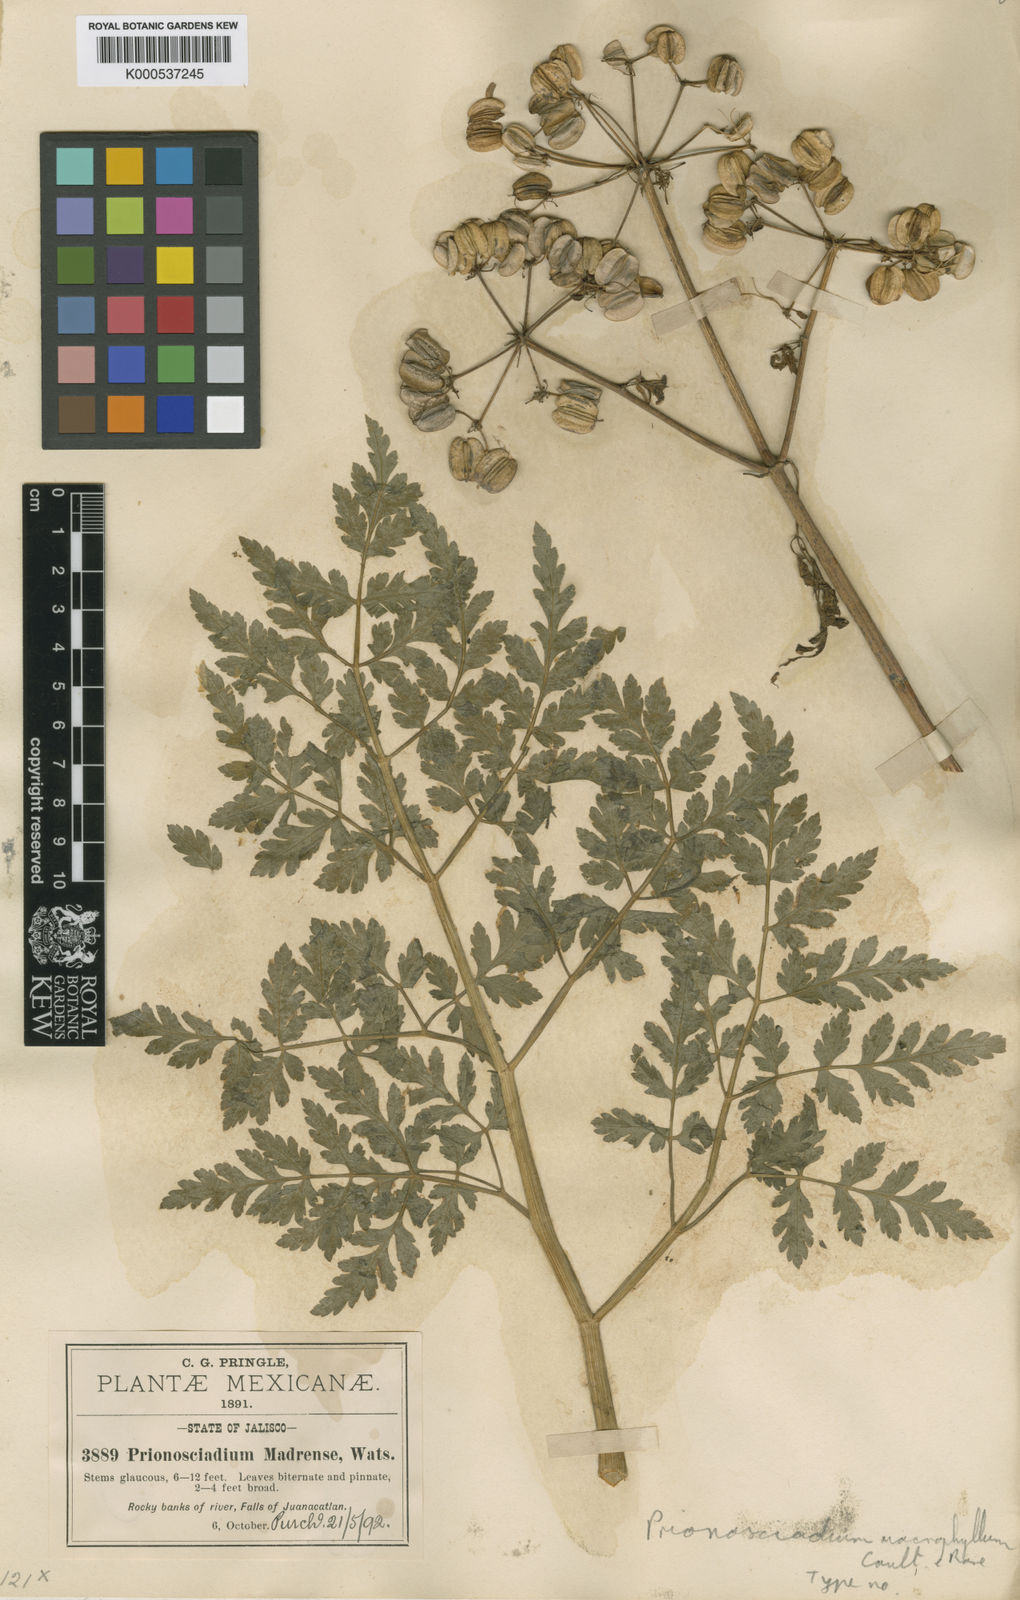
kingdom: Plantae
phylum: Tracheophyta
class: Magnoliopsida
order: Apiales
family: Apiaceae
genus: Prionosciadium
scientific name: Prionosciadium macrophyllum
